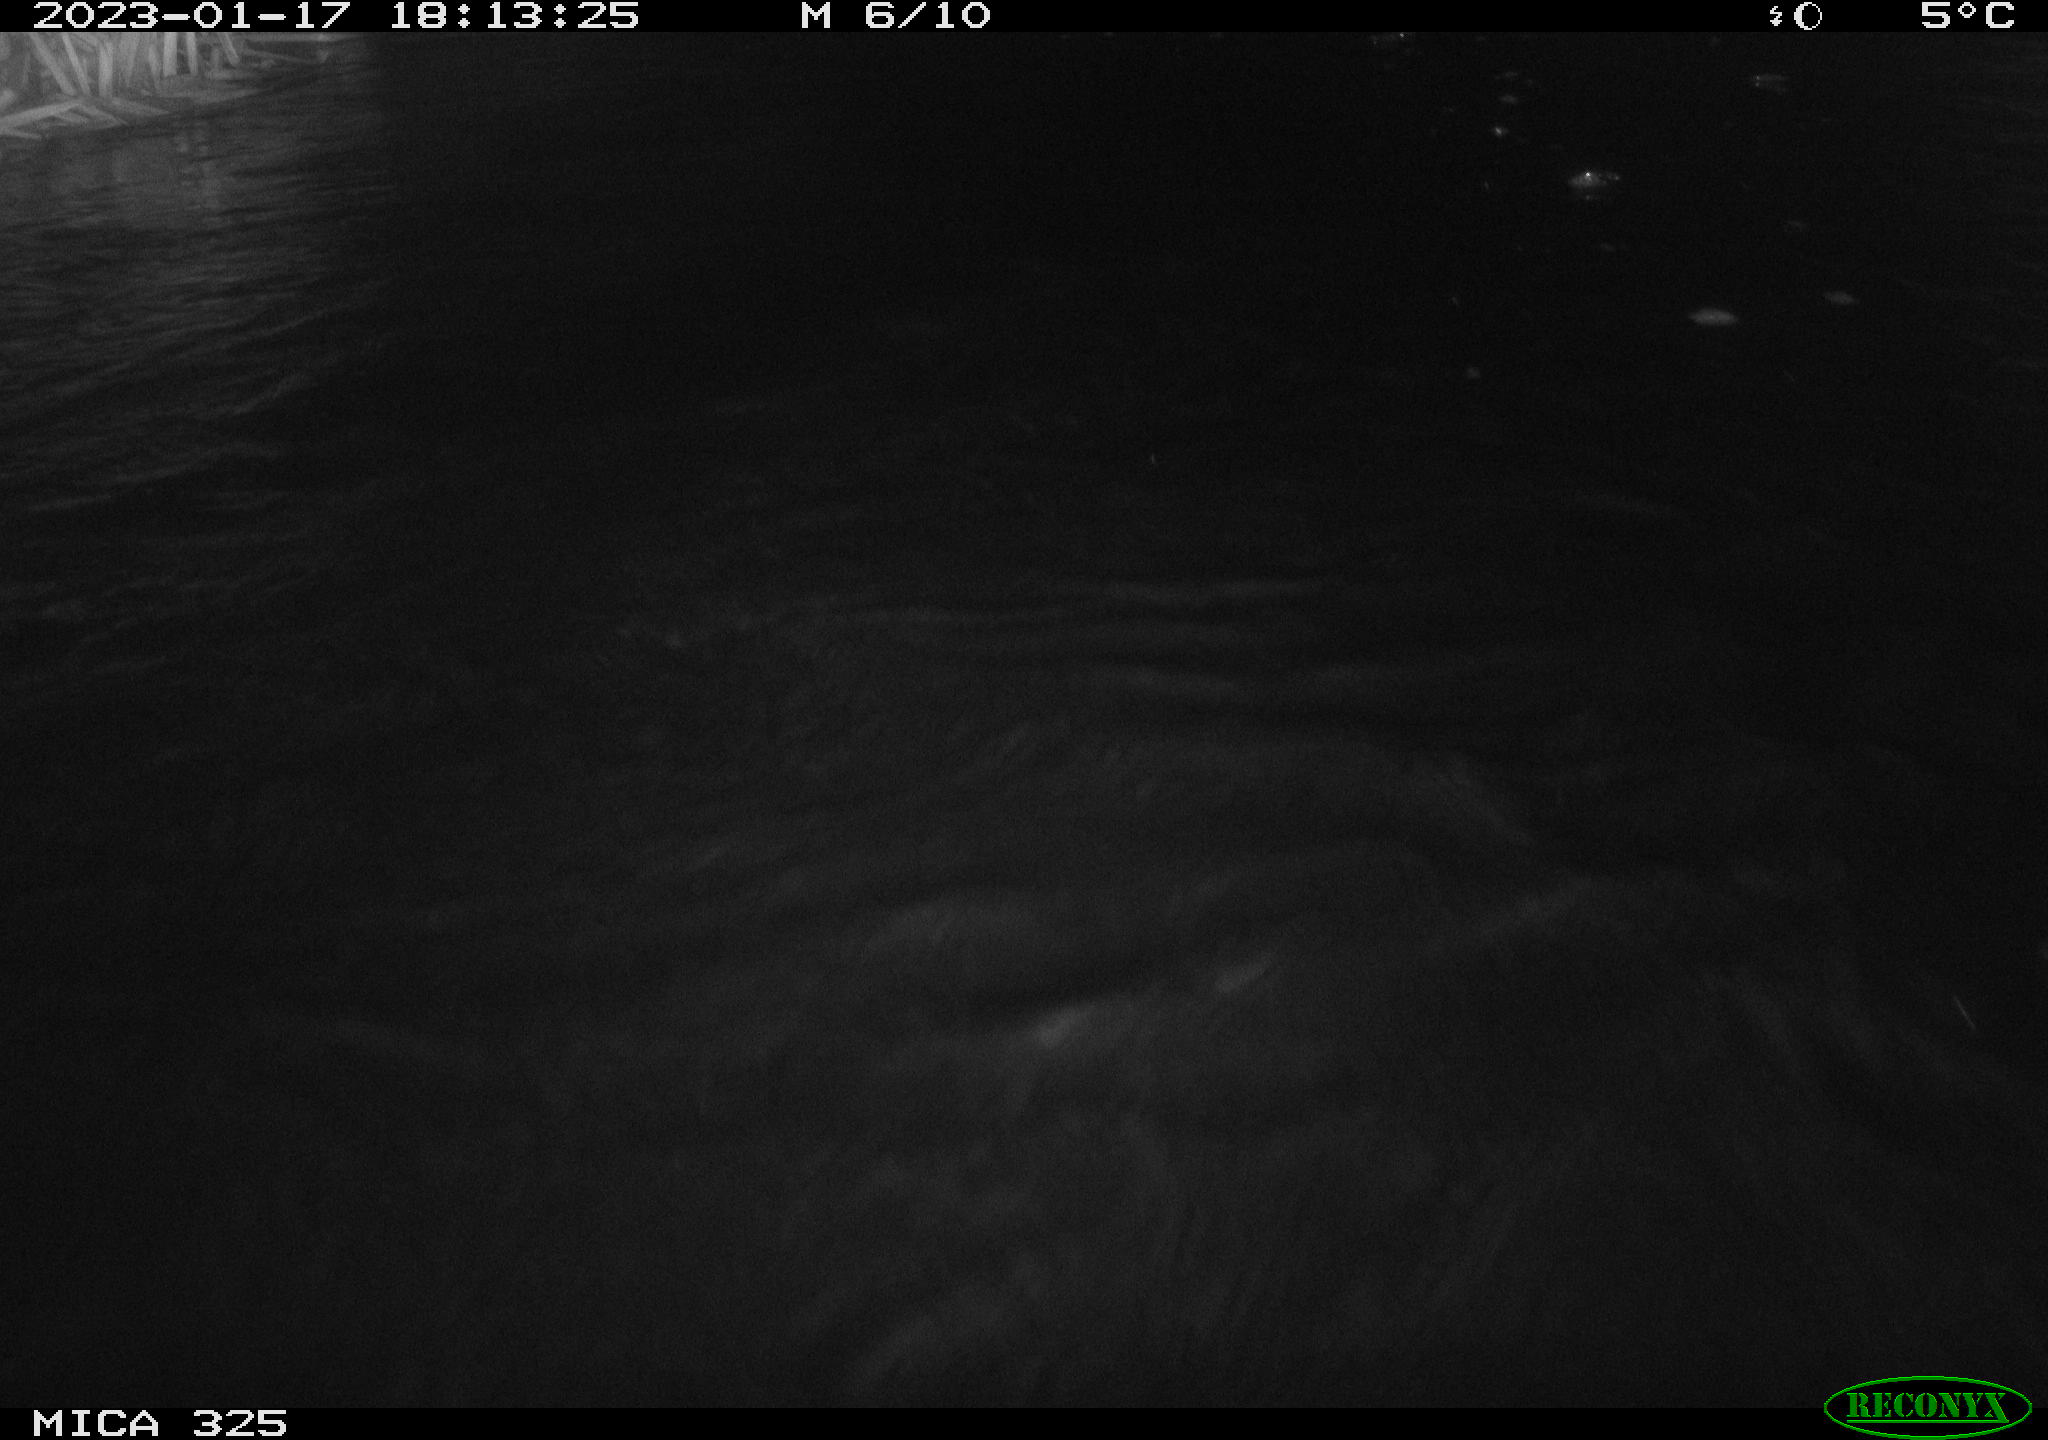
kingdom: Animalia
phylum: Chordata
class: Mammalia
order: Rodentia
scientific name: Rodentia
